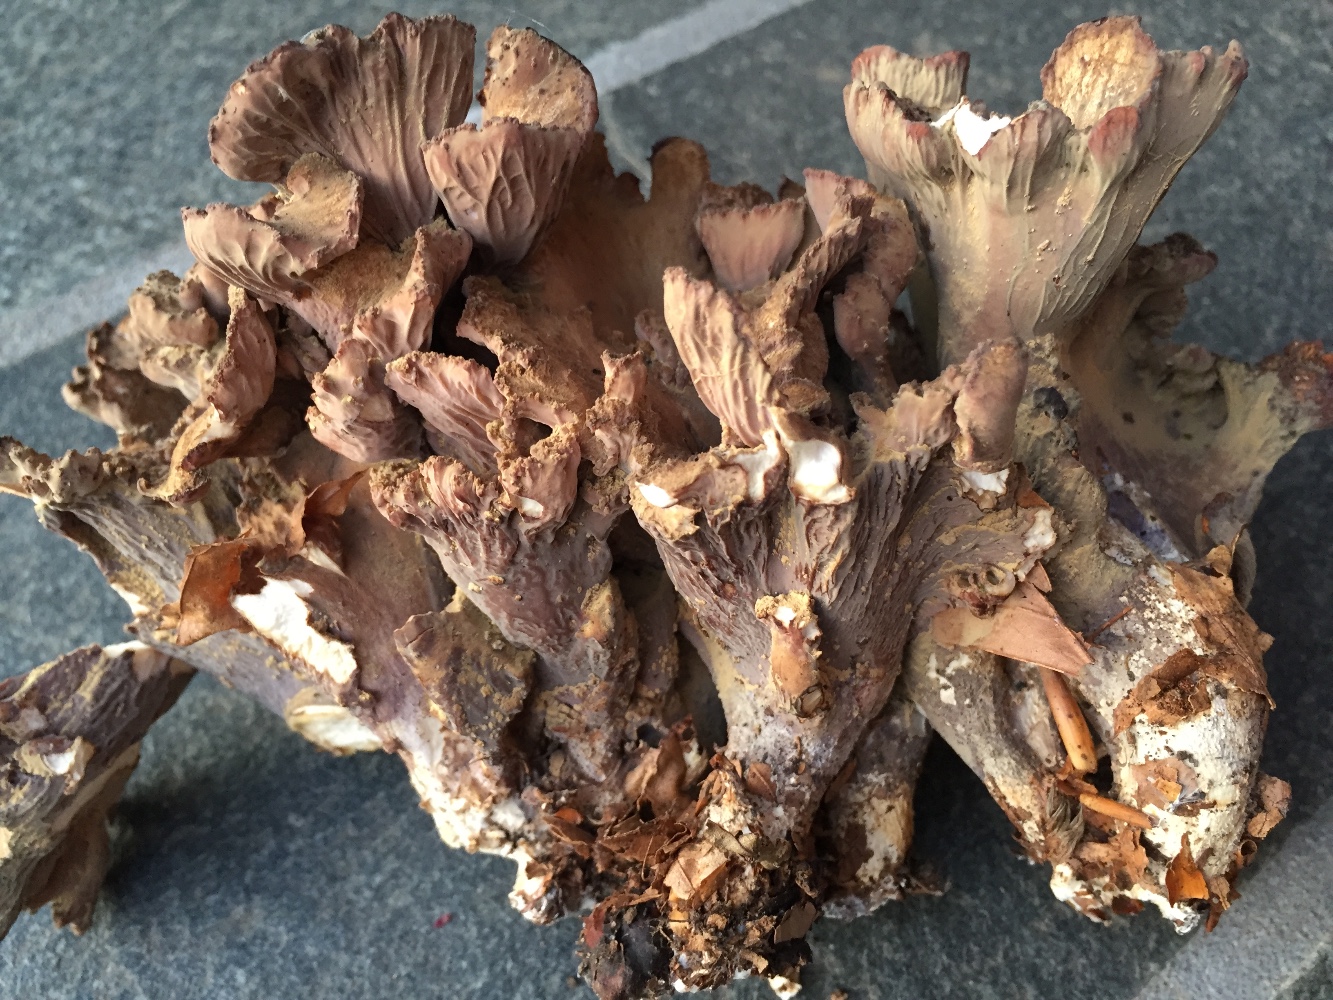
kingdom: Fungi
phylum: Basidiomycota
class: Agaricomycetes
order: Gomphales
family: Gomphaceae
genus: Gomphus
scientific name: Gomphus clavatus
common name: køllekantarel
